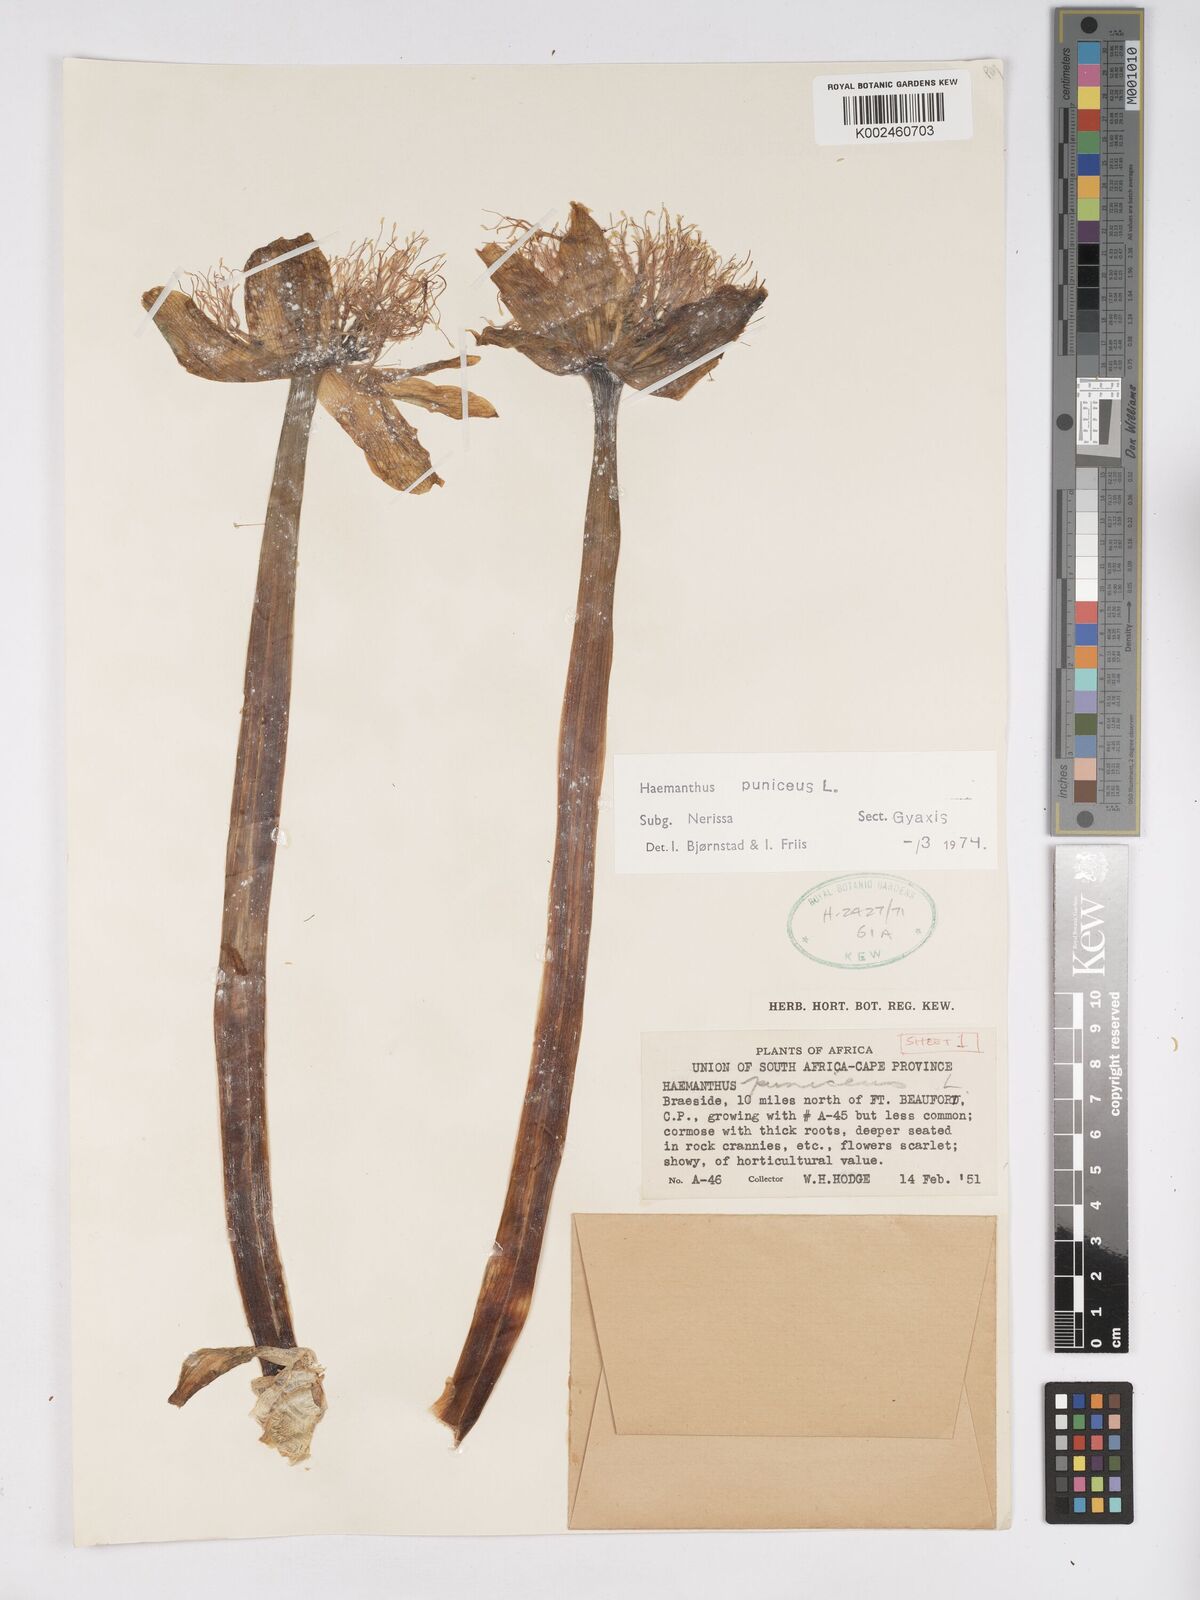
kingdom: Plantae
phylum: Tracheophyta
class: Liliopsida
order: Asparagales
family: Amaryllidaceae
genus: Scadoxus
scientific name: Scadoxus puniceus
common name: Royal-paintbrush
